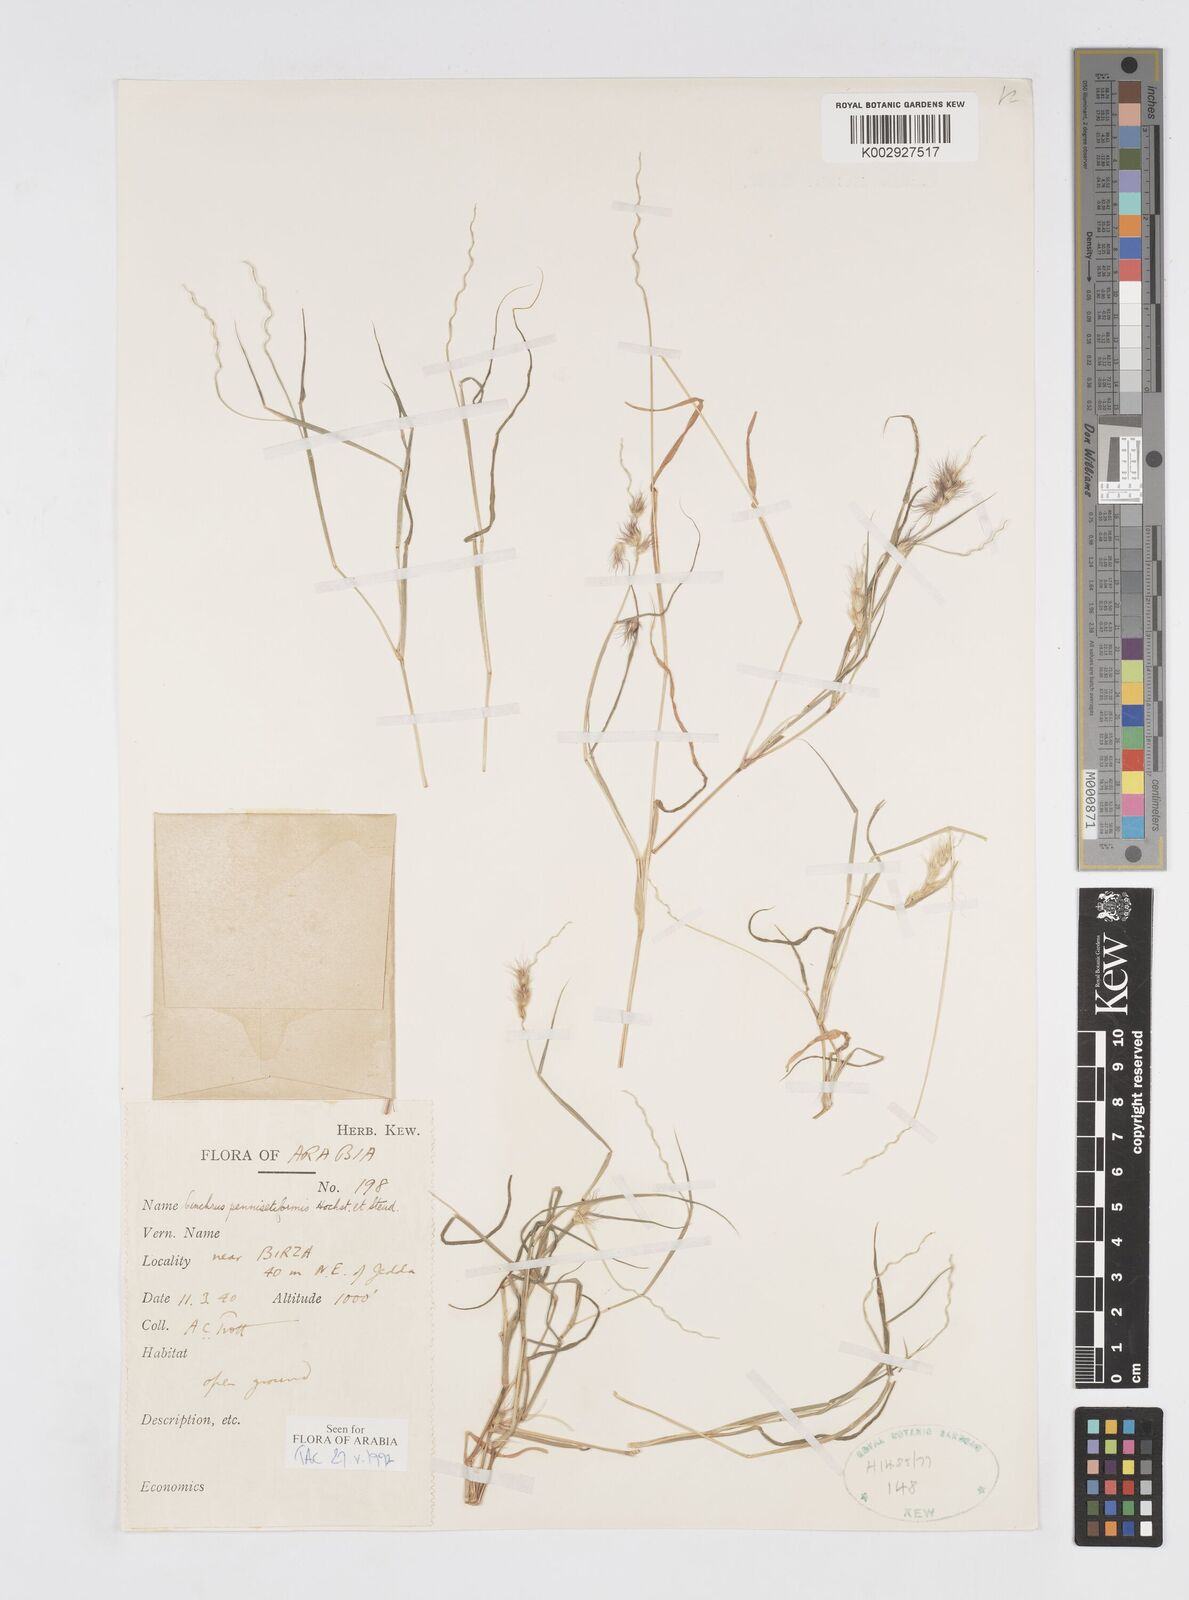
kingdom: Plantae
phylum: Tracheophyta
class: Liliopsida
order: Poales
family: Poaceae
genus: Cenchrus
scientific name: Cenchrus pennisetiformis
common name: Cloncurry
